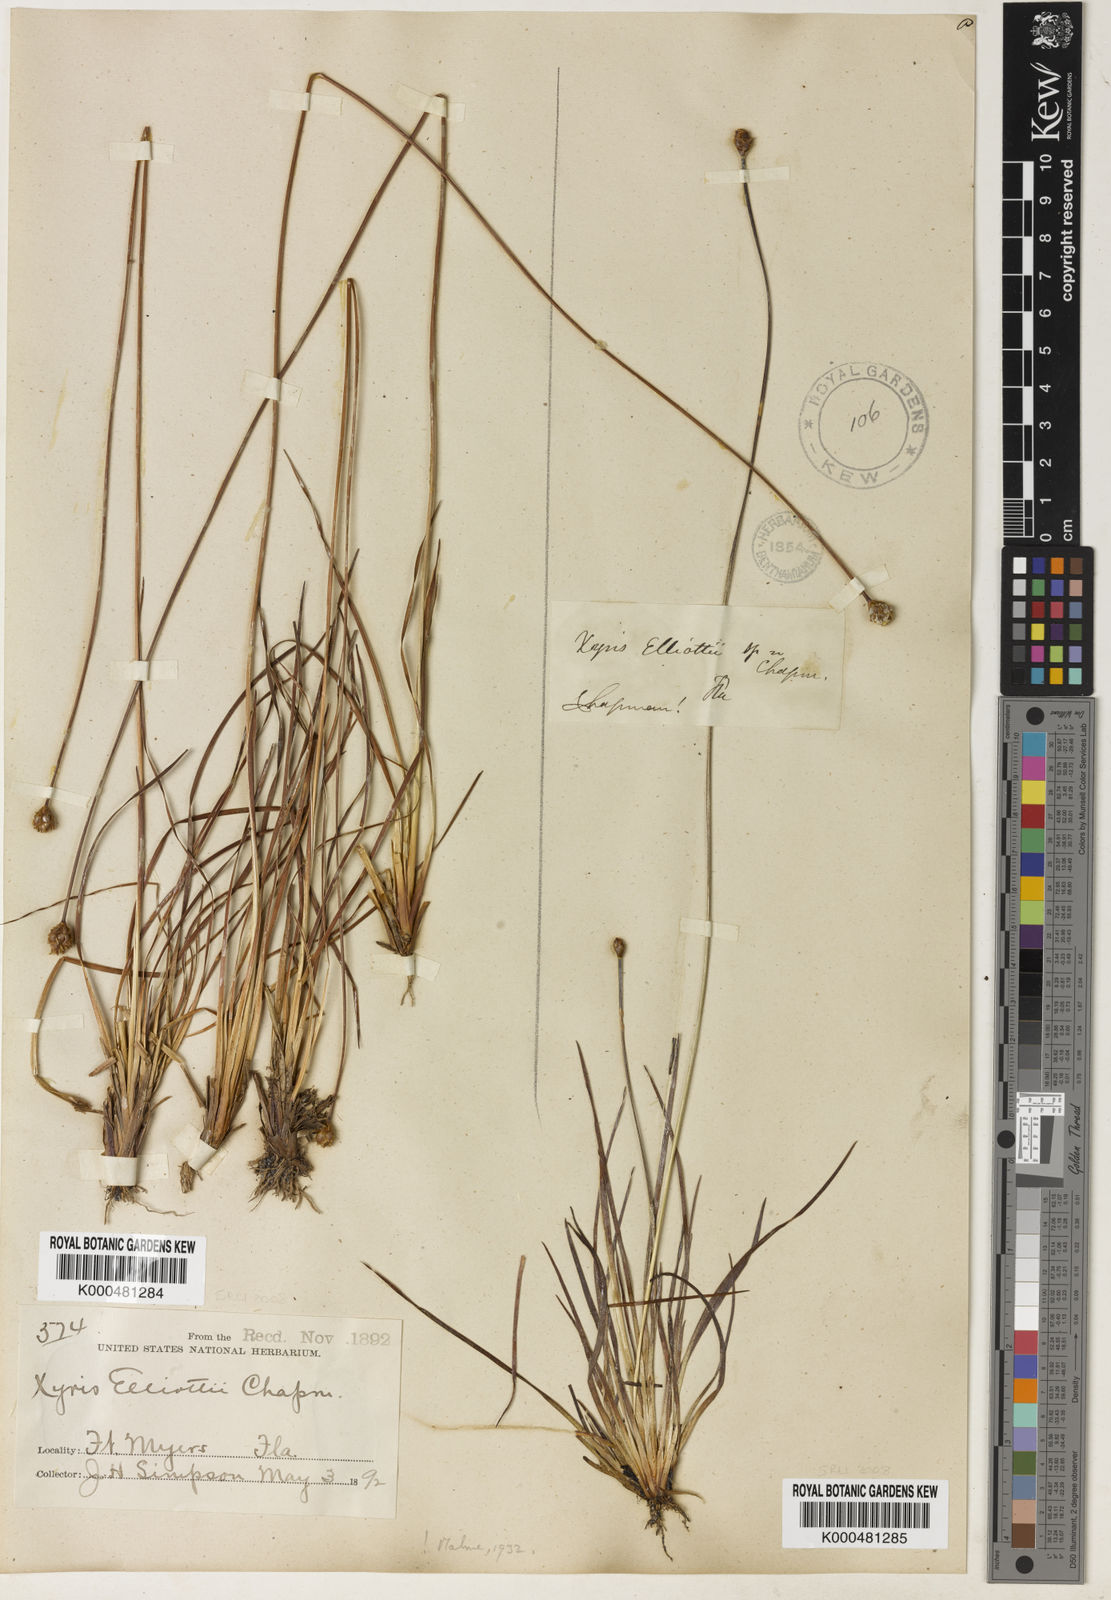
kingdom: Plantae
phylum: Tracheophyta
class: Liliopsida
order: Poales
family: Xyridaceae
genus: Xyris
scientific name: Xyris elliottii
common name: Elliot's yelloweyed grass
